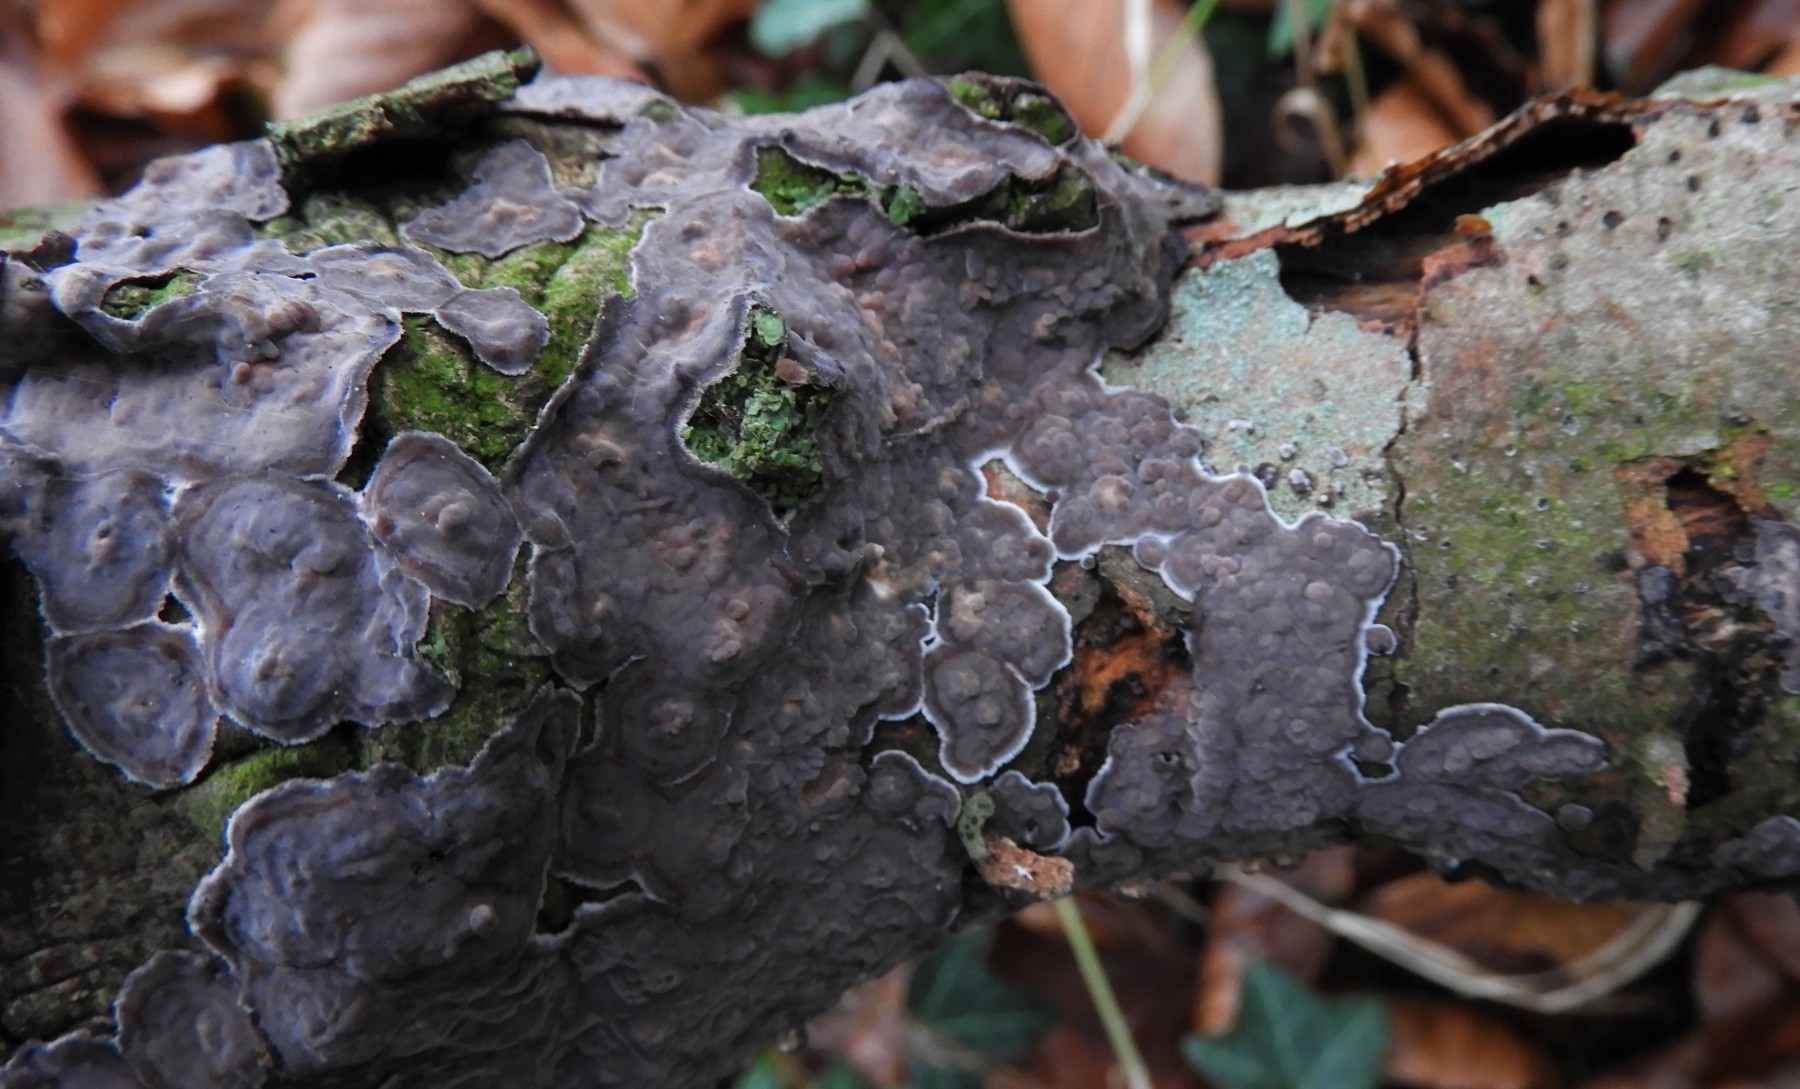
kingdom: Fungi
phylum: Basidiomycota
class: Agaricomycetes
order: Russulales
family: Peniophoraceae
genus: Peniophora
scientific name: Peniophora quercina
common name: ege-voksskind
